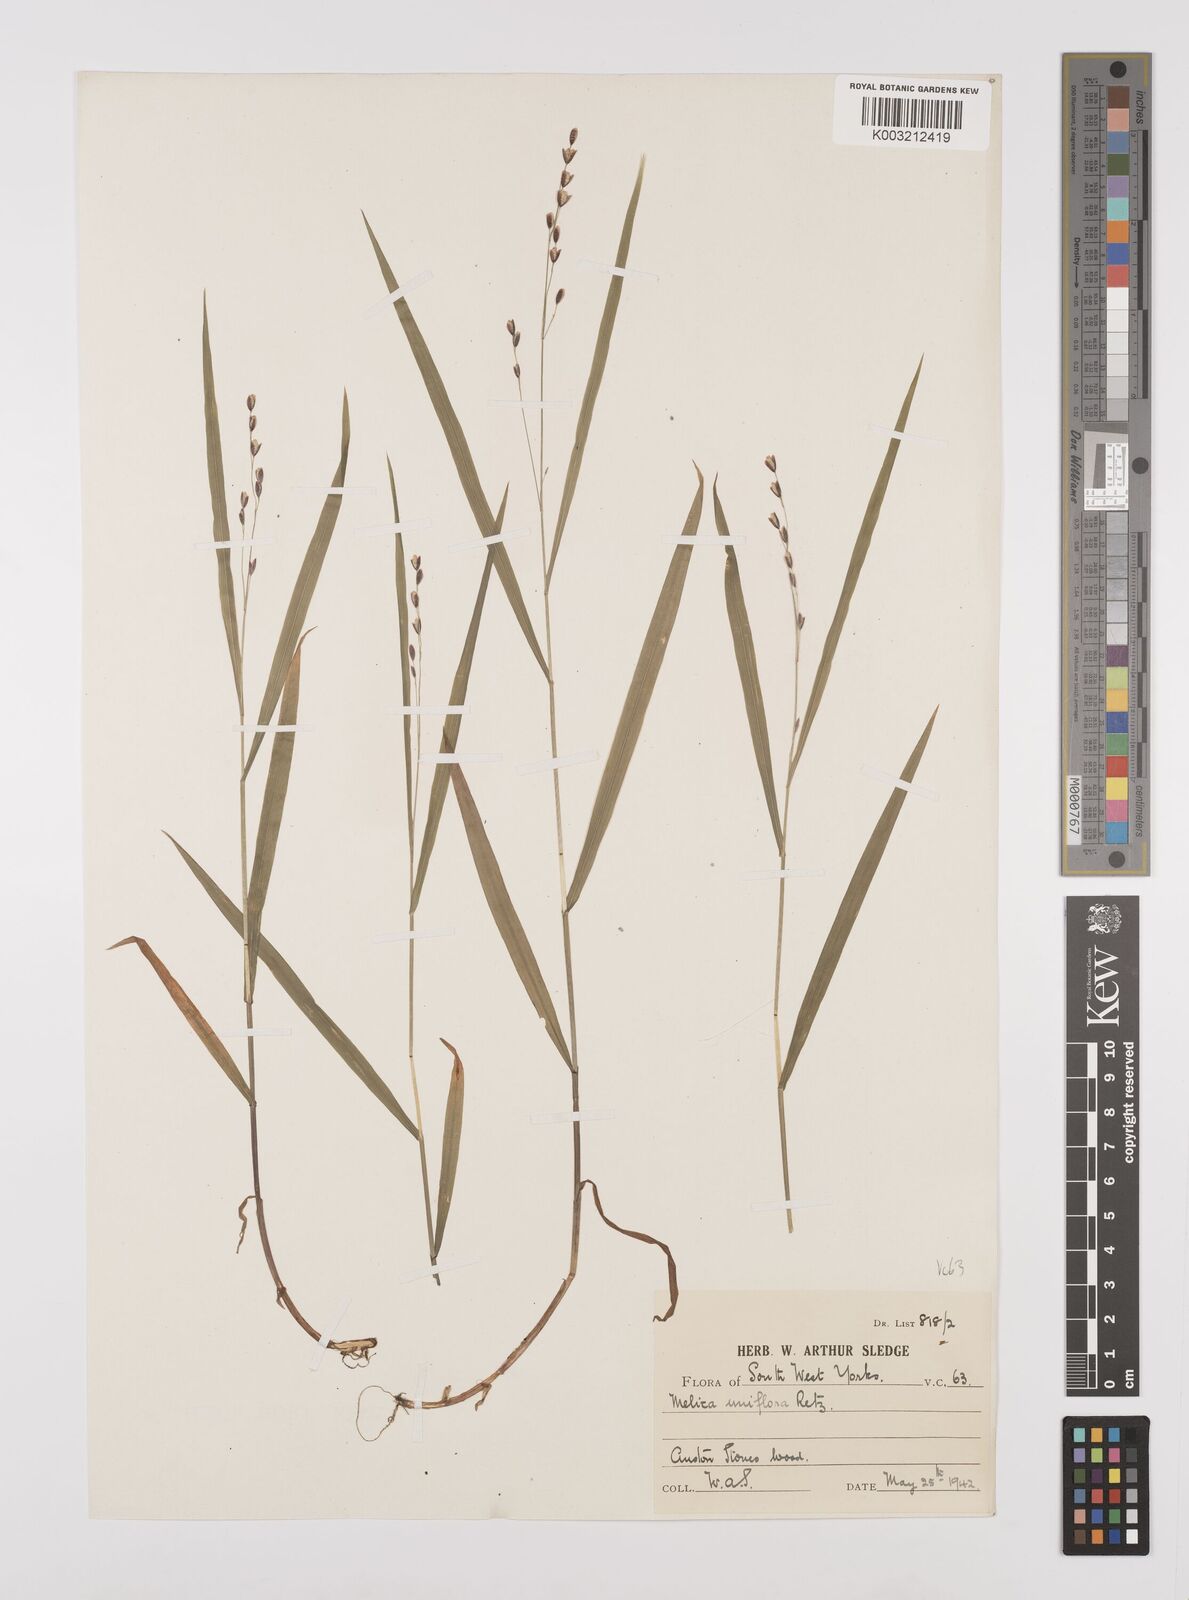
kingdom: Plantae
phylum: Tracheophyta
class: Liliopsida
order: Poales
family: Poaceae
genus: Melica
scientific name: Melica uniflora
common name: Wood melick
